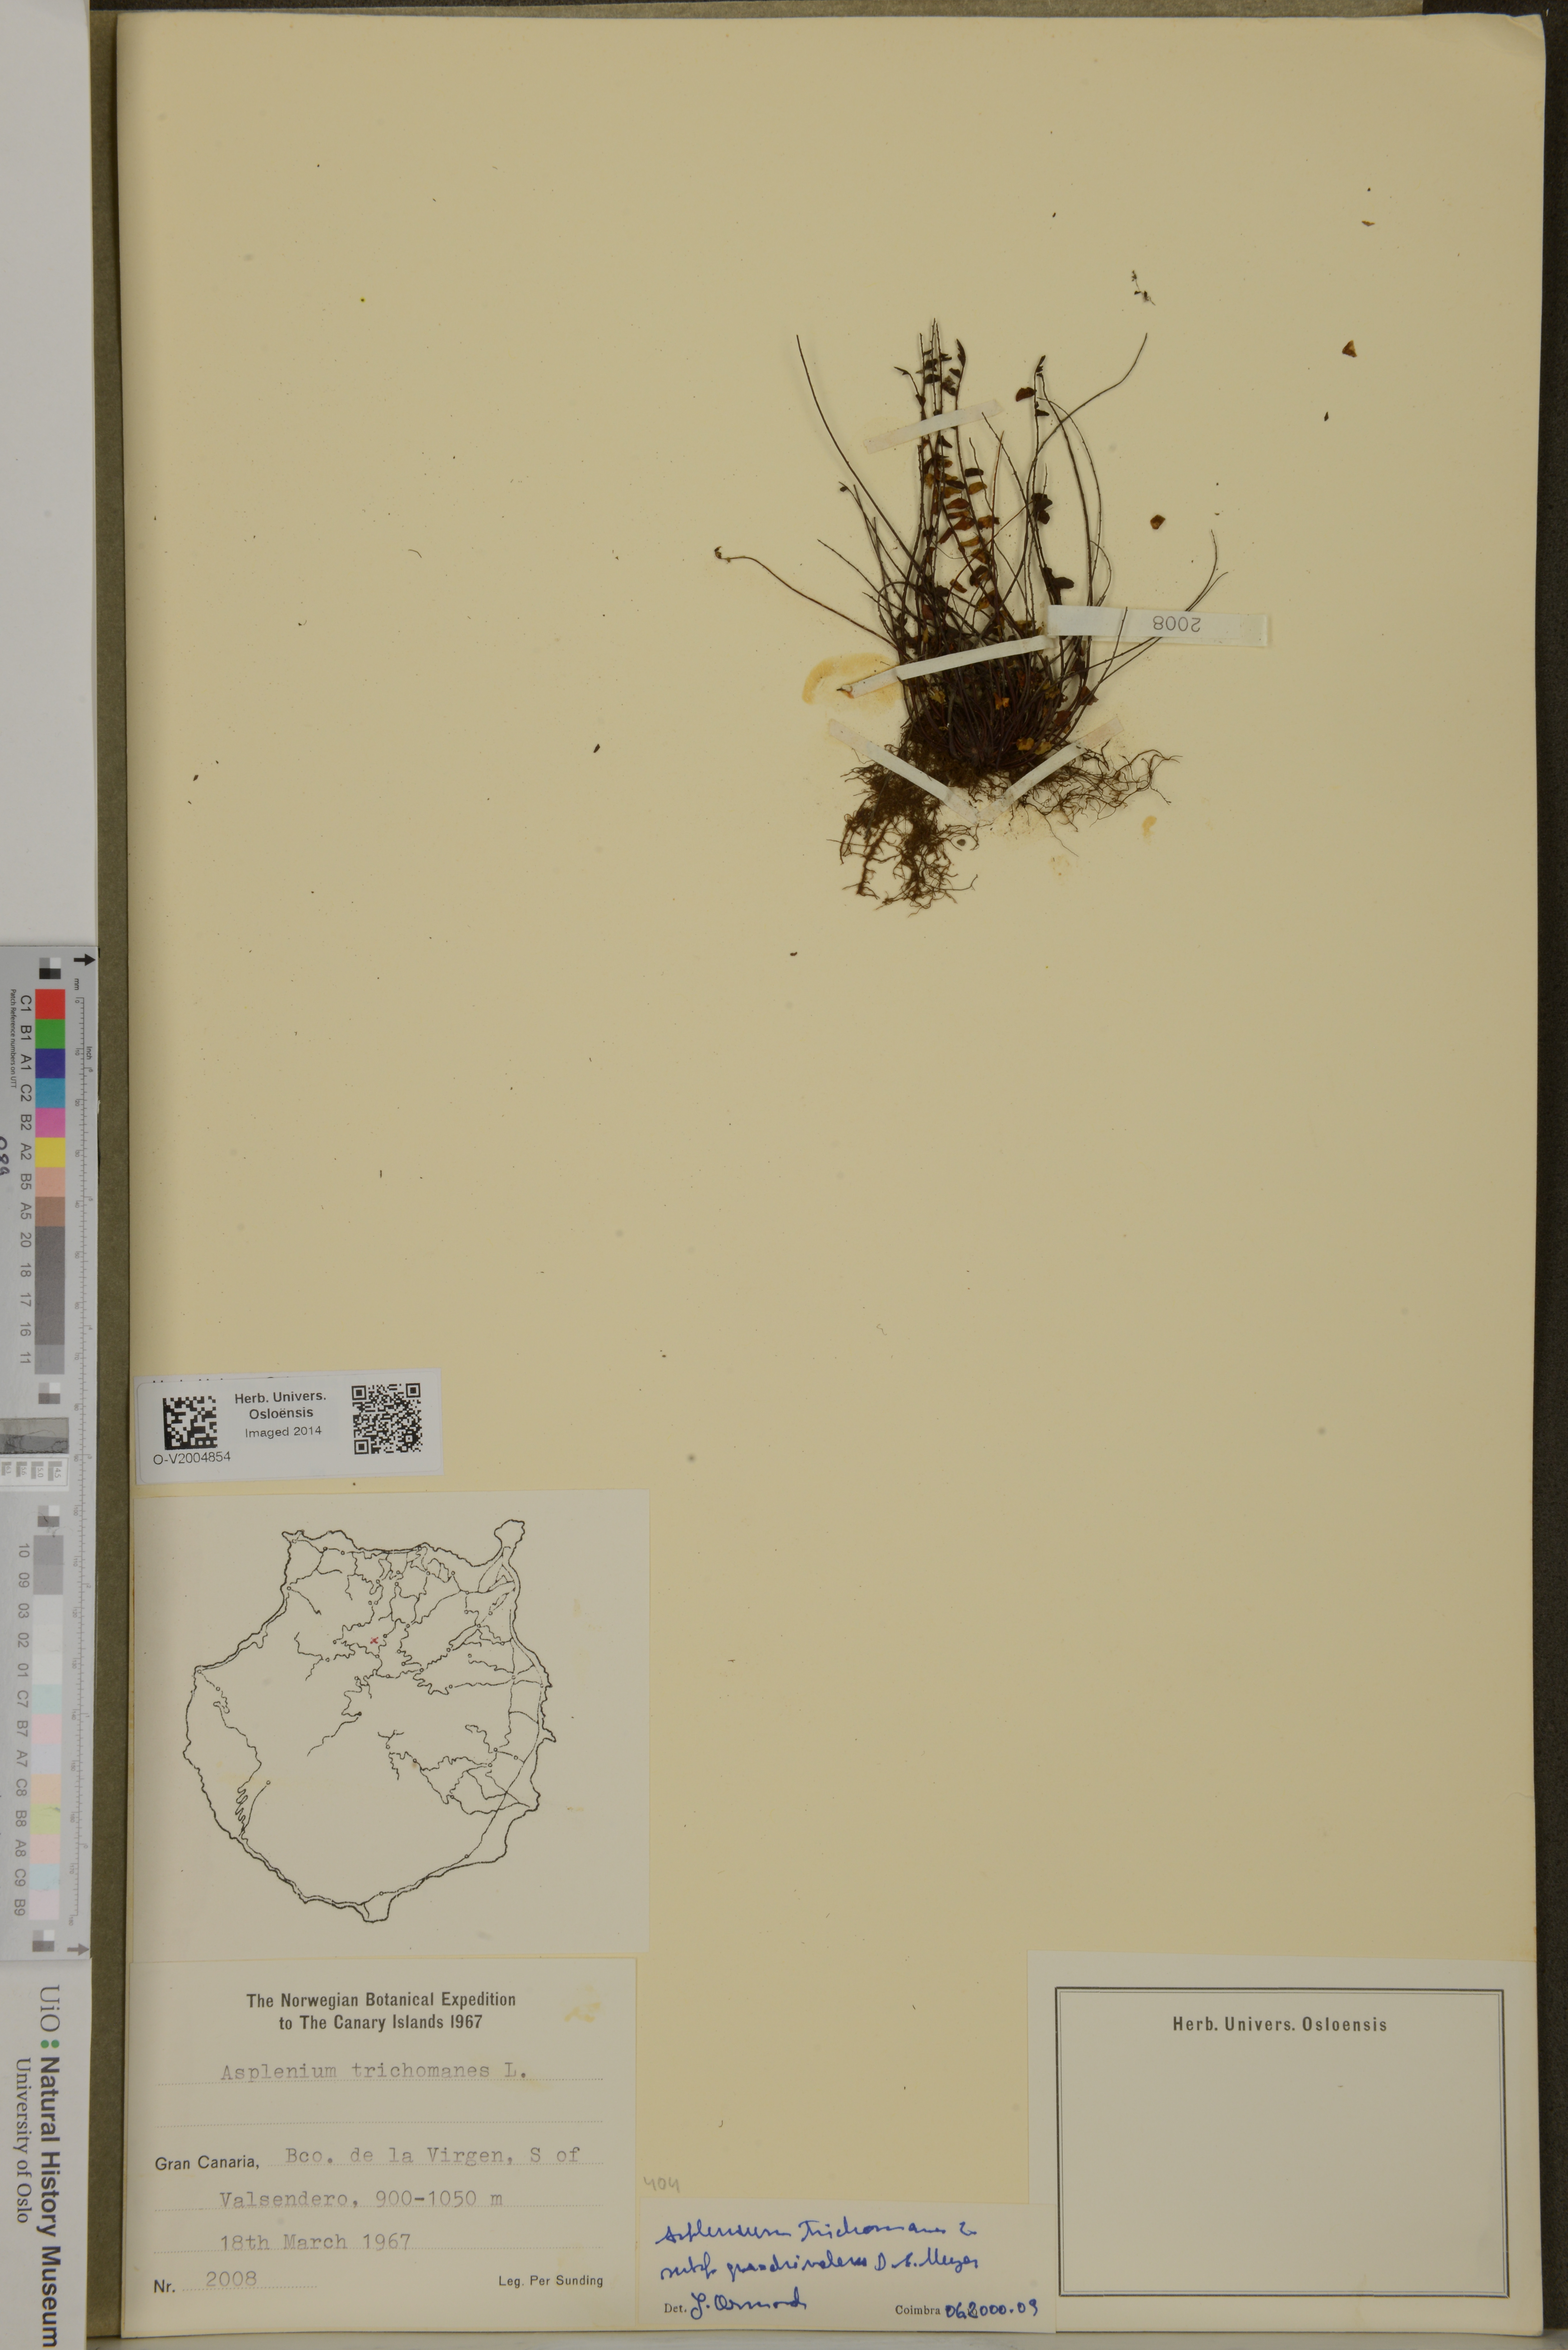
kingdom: Plantae
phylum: Tracheophyta
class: Polypodiopsida
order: Polypodiales
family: Aspleniaceae
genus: Asplenium
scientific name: Asplenium quadrivalens
